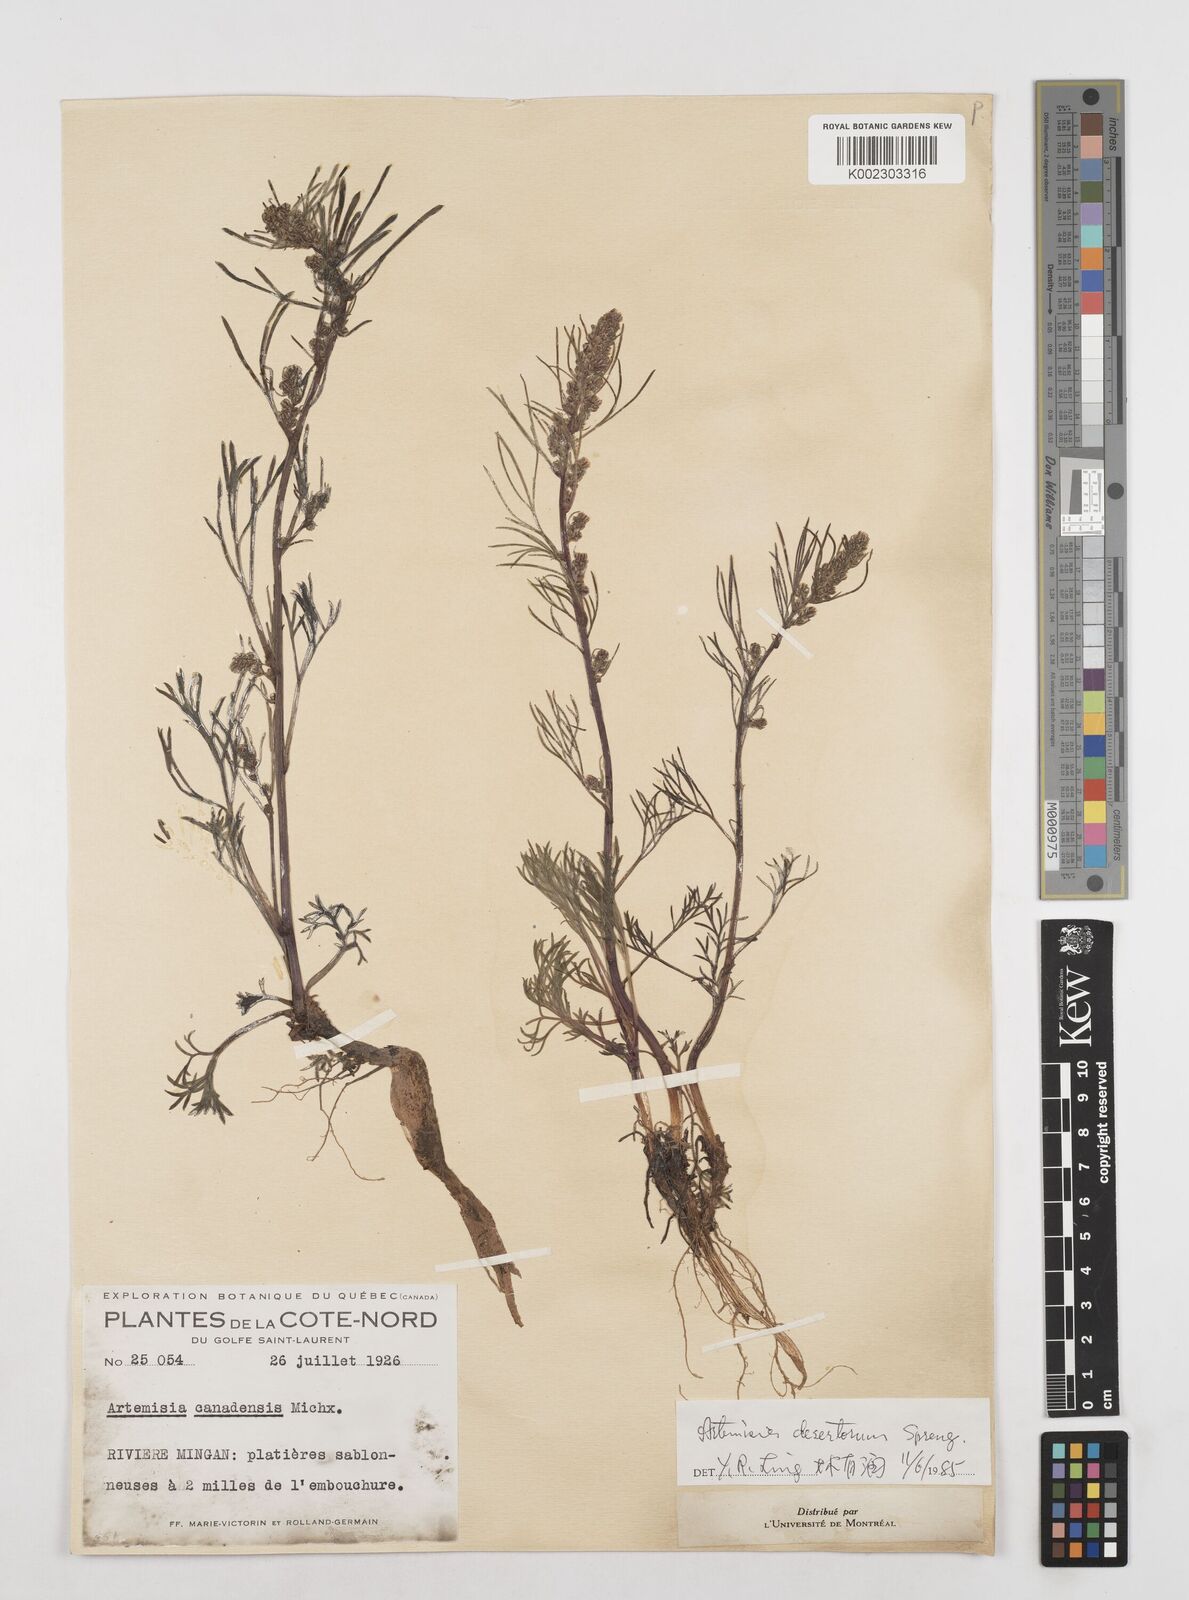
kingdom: Plantae
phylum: Tracheophyta
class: Magnoliopsida
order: Asterales
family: Asteraceae
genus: Artemisia
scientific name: Artemisia desertorum
